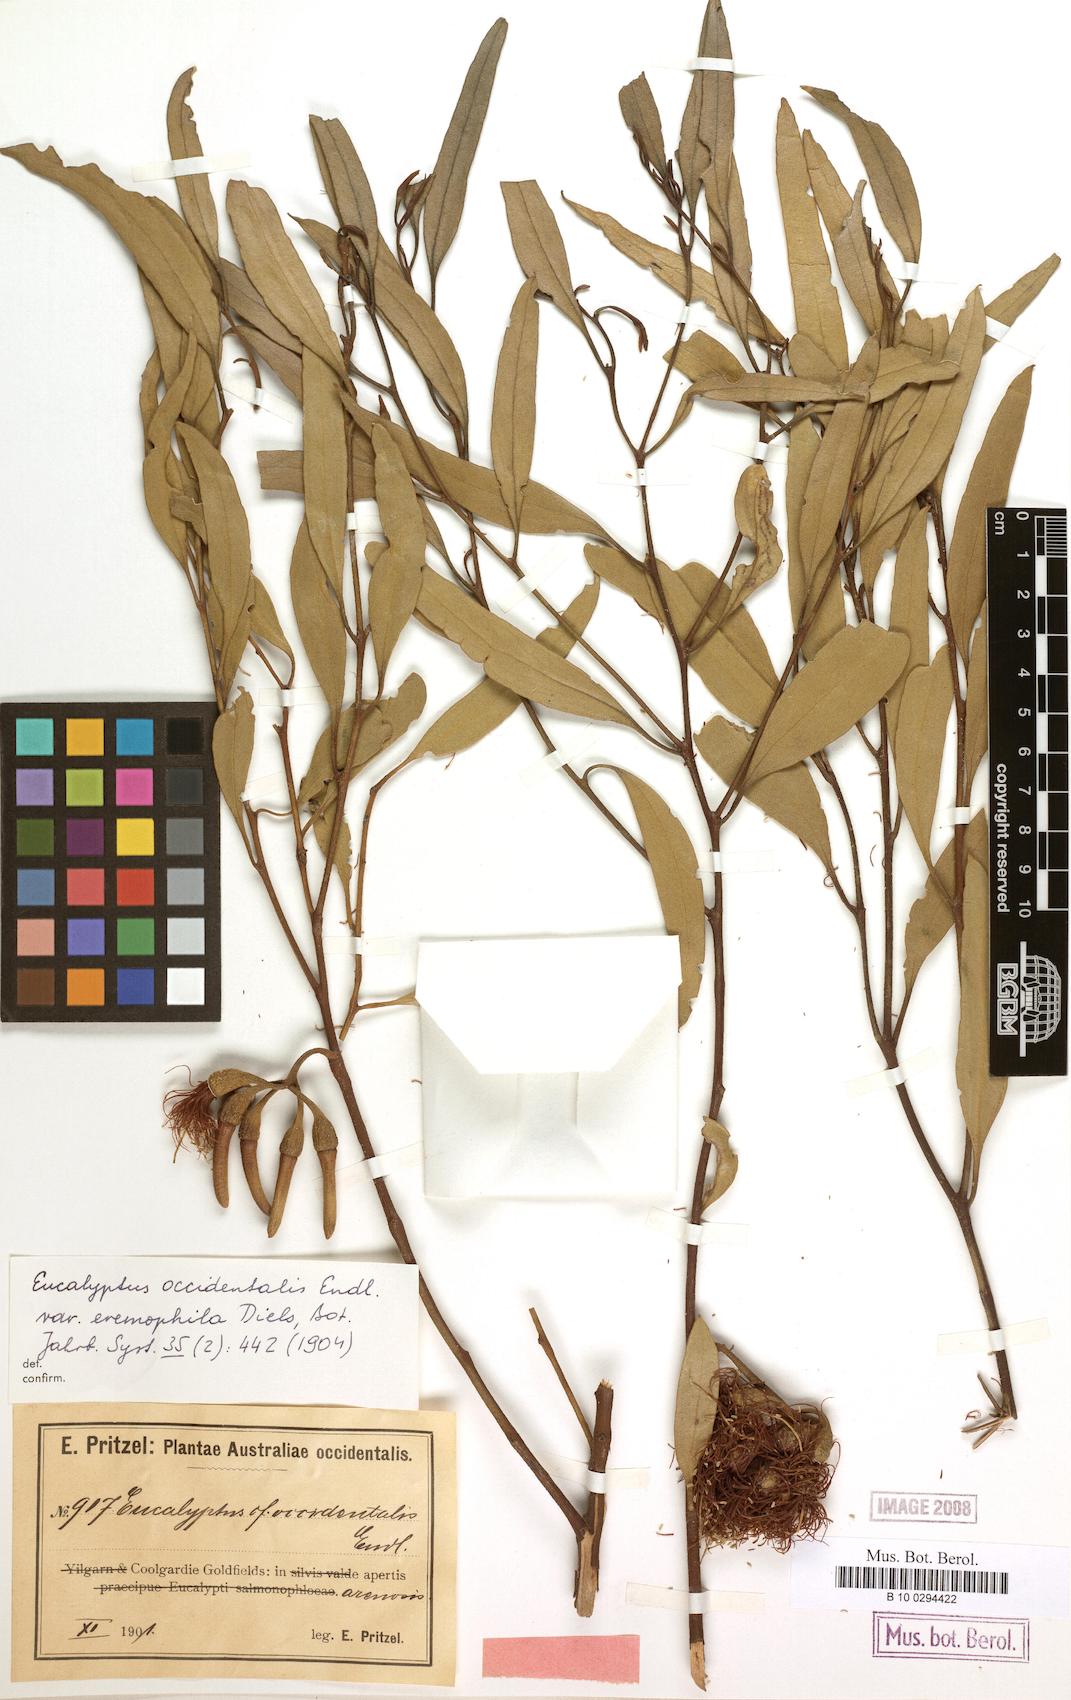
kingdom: Plantae
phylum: Tracheophyta
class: Magnoliopsida
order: Myrtales
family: Myrtaceae
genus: Eucalyptus
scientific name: Eucalyptus eremophila
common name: Tall sand mallee
